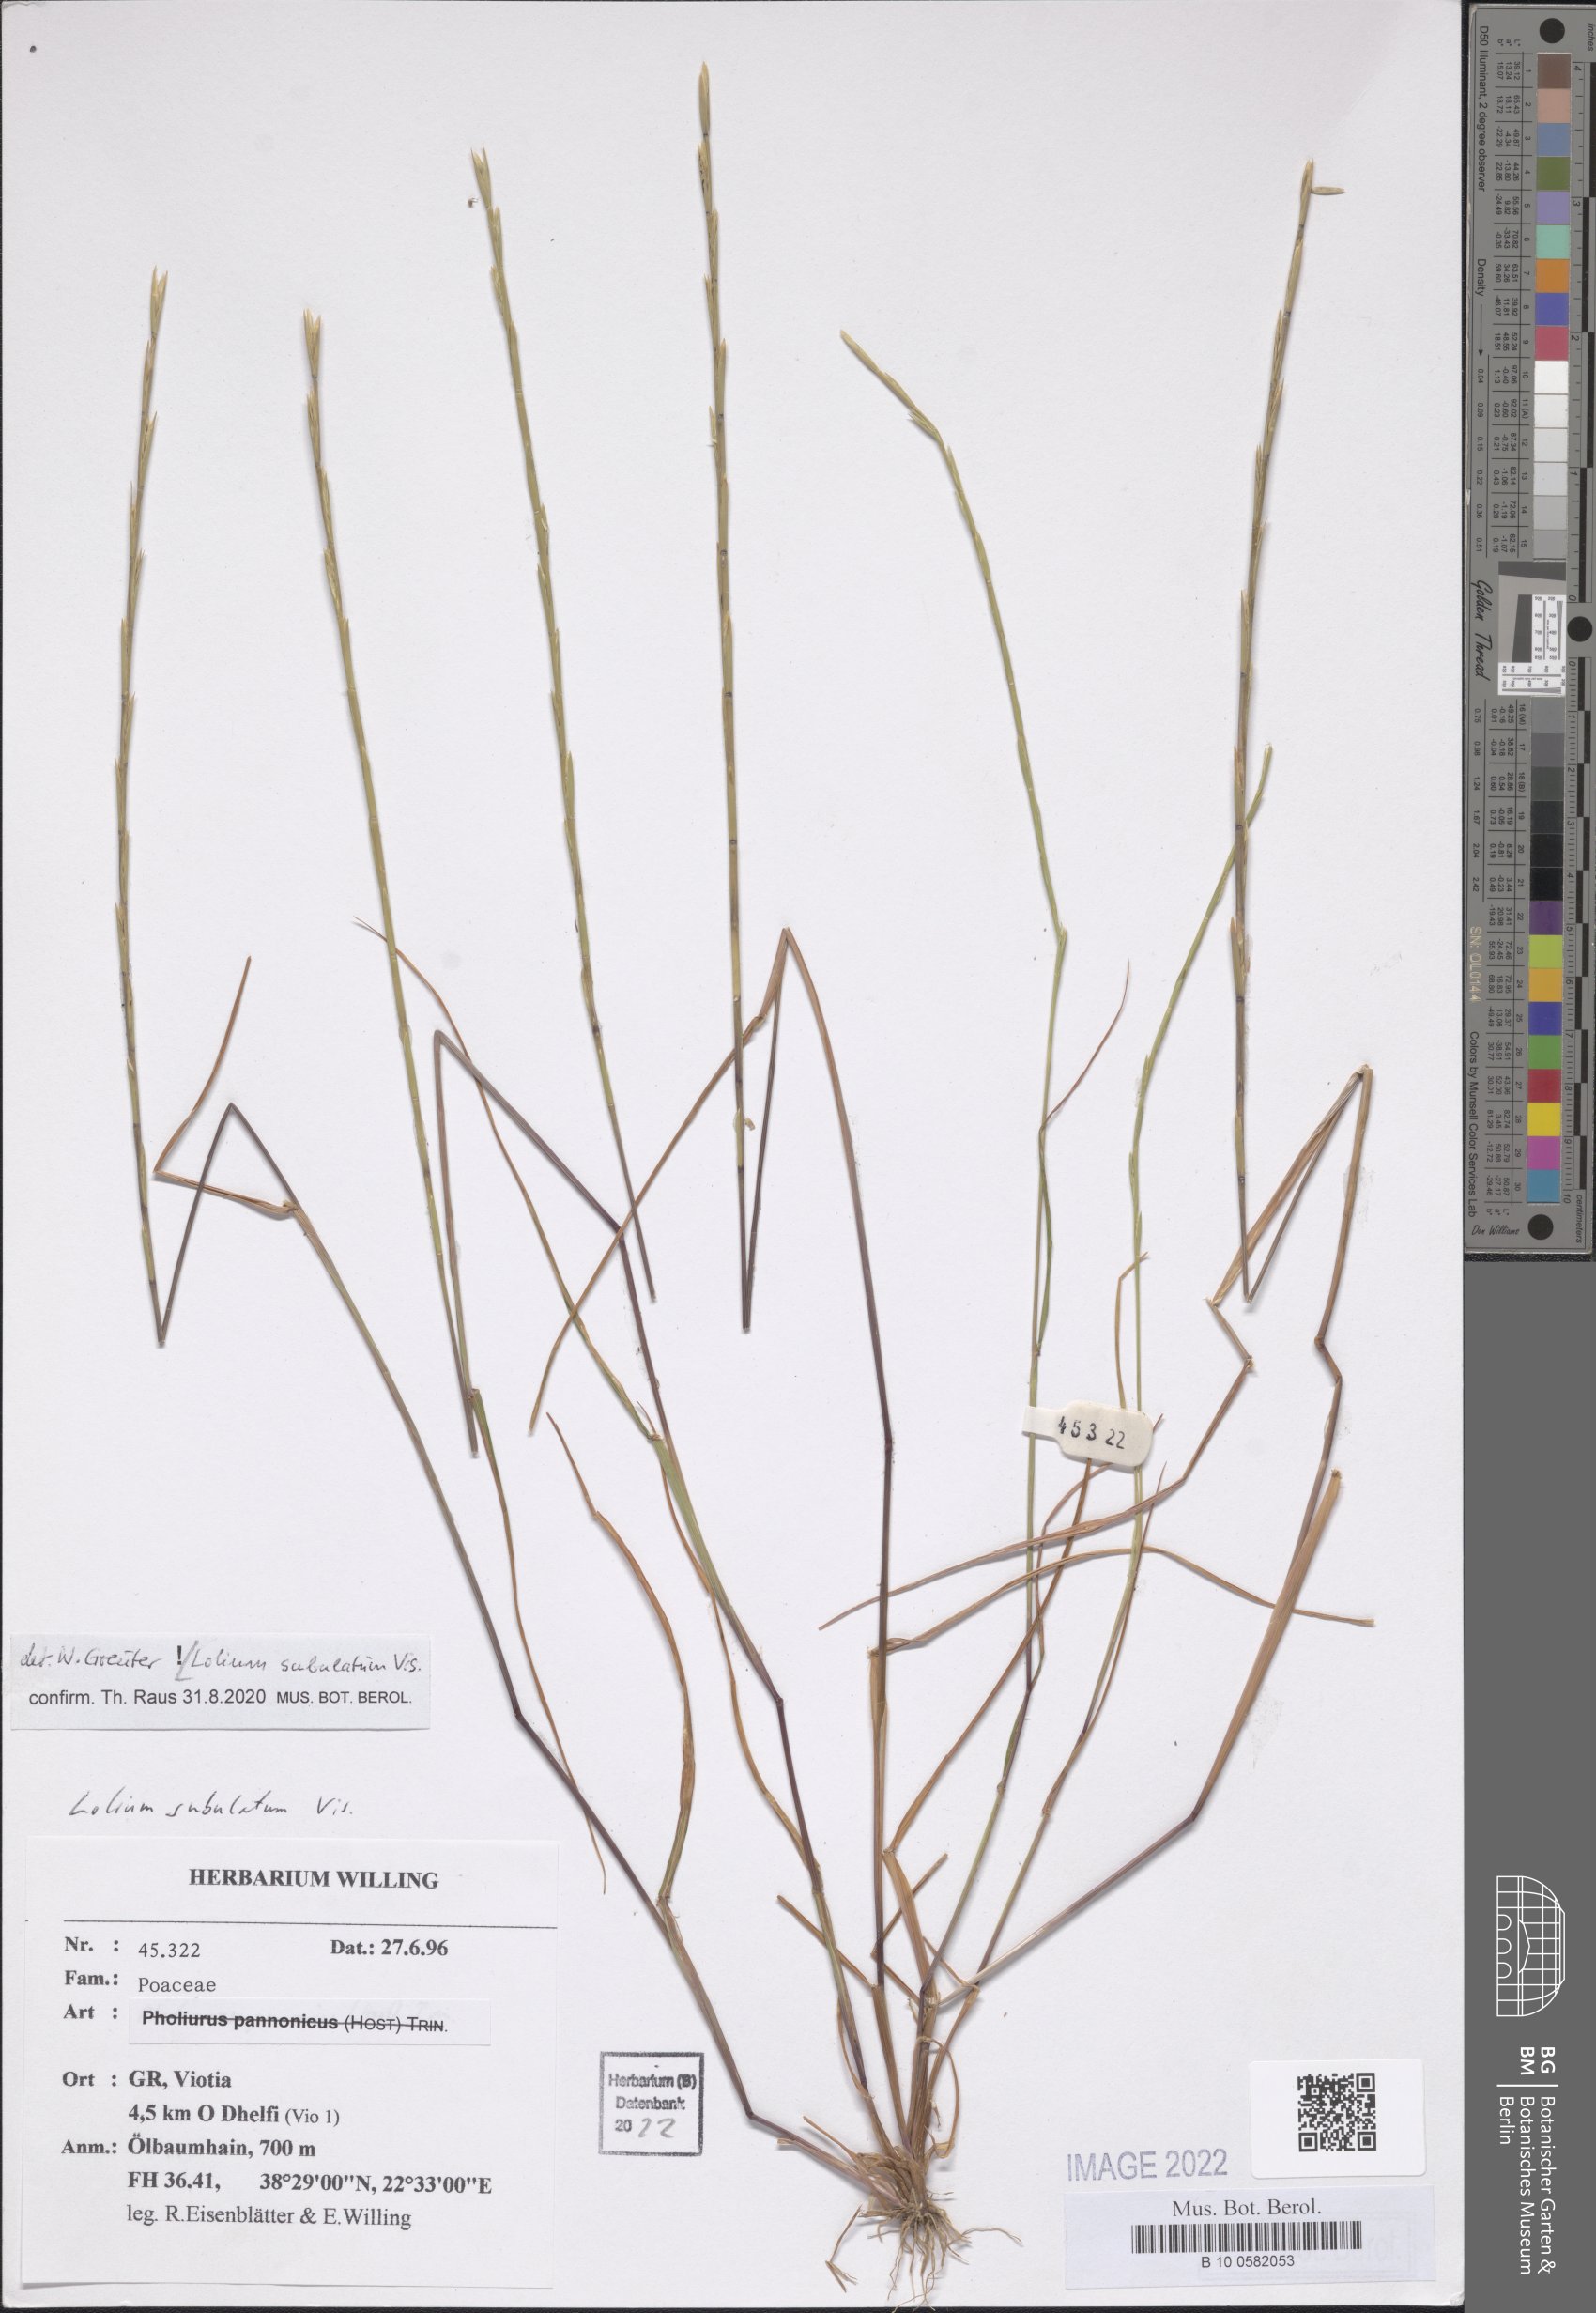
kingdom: Plantae
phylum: Tracheophyta
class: Liliopsida
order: Poales
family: Poaceae
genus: Lolium
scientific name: Lolium subulatum
